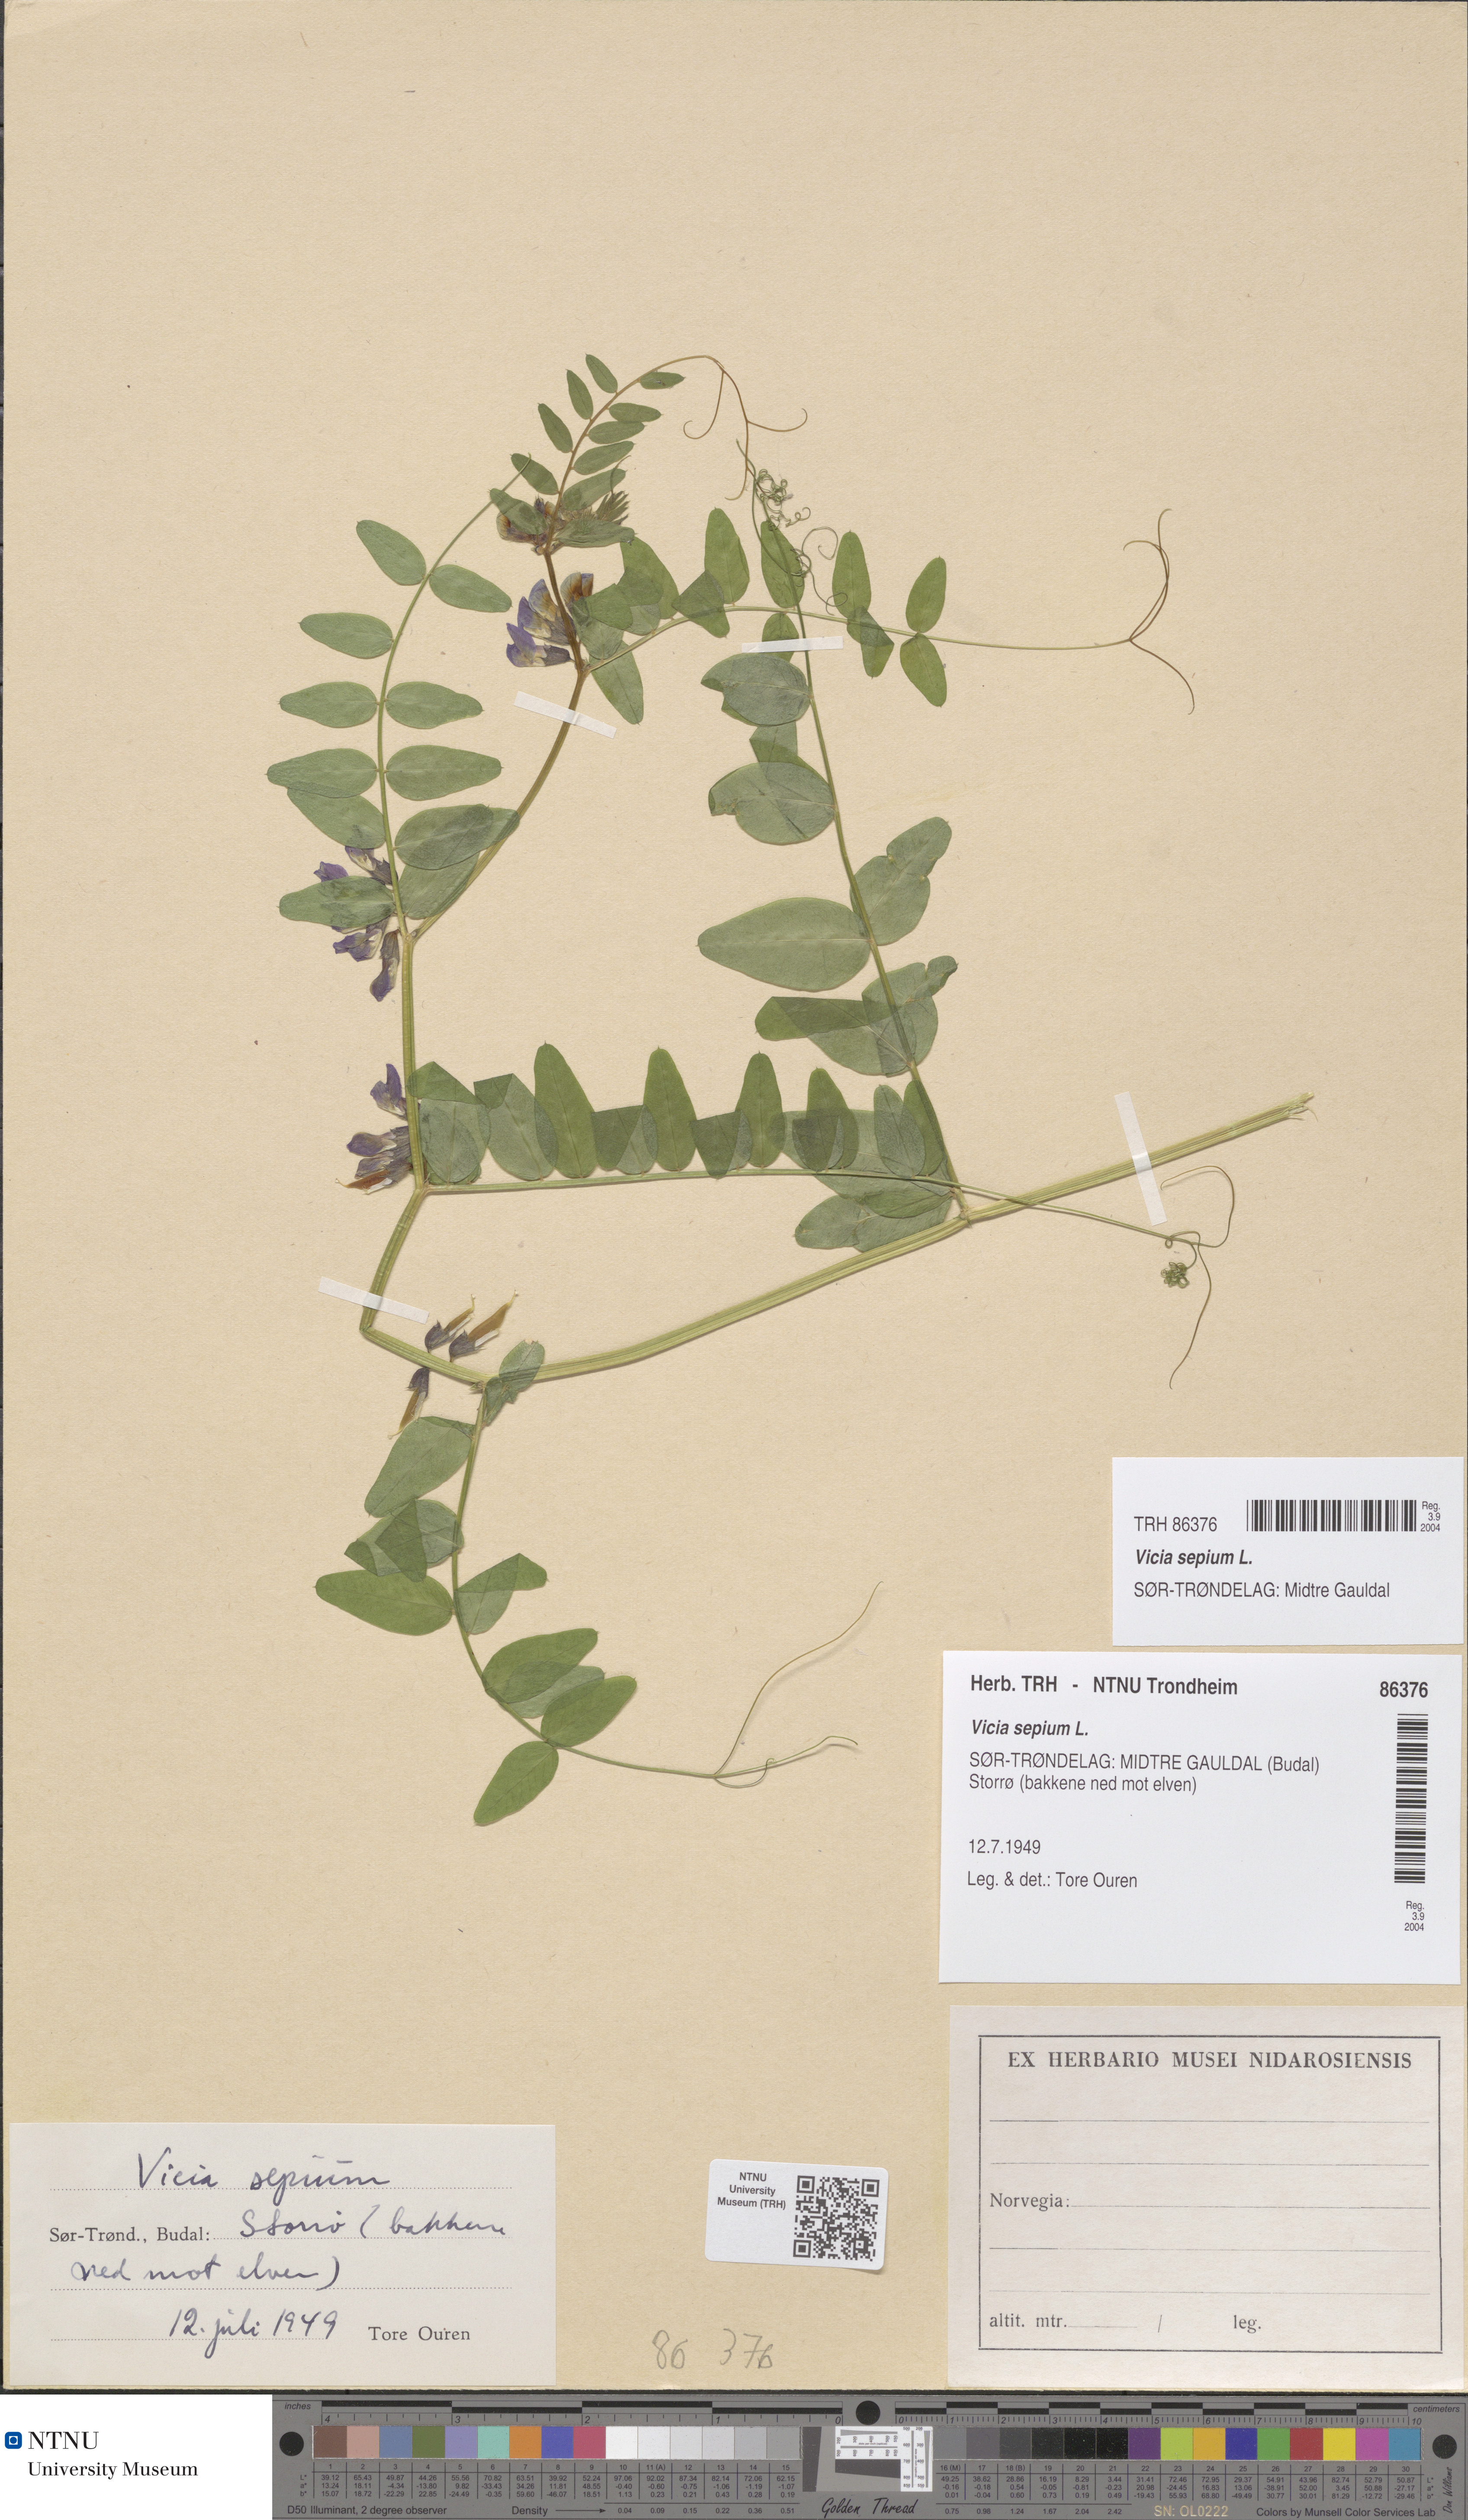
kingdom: Plantae
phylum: Tracheophyta
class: Magnoliopsida
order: Fabales
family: Fabaceae
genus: Vicia
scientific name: Vicia sepium
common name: Bush vetch
